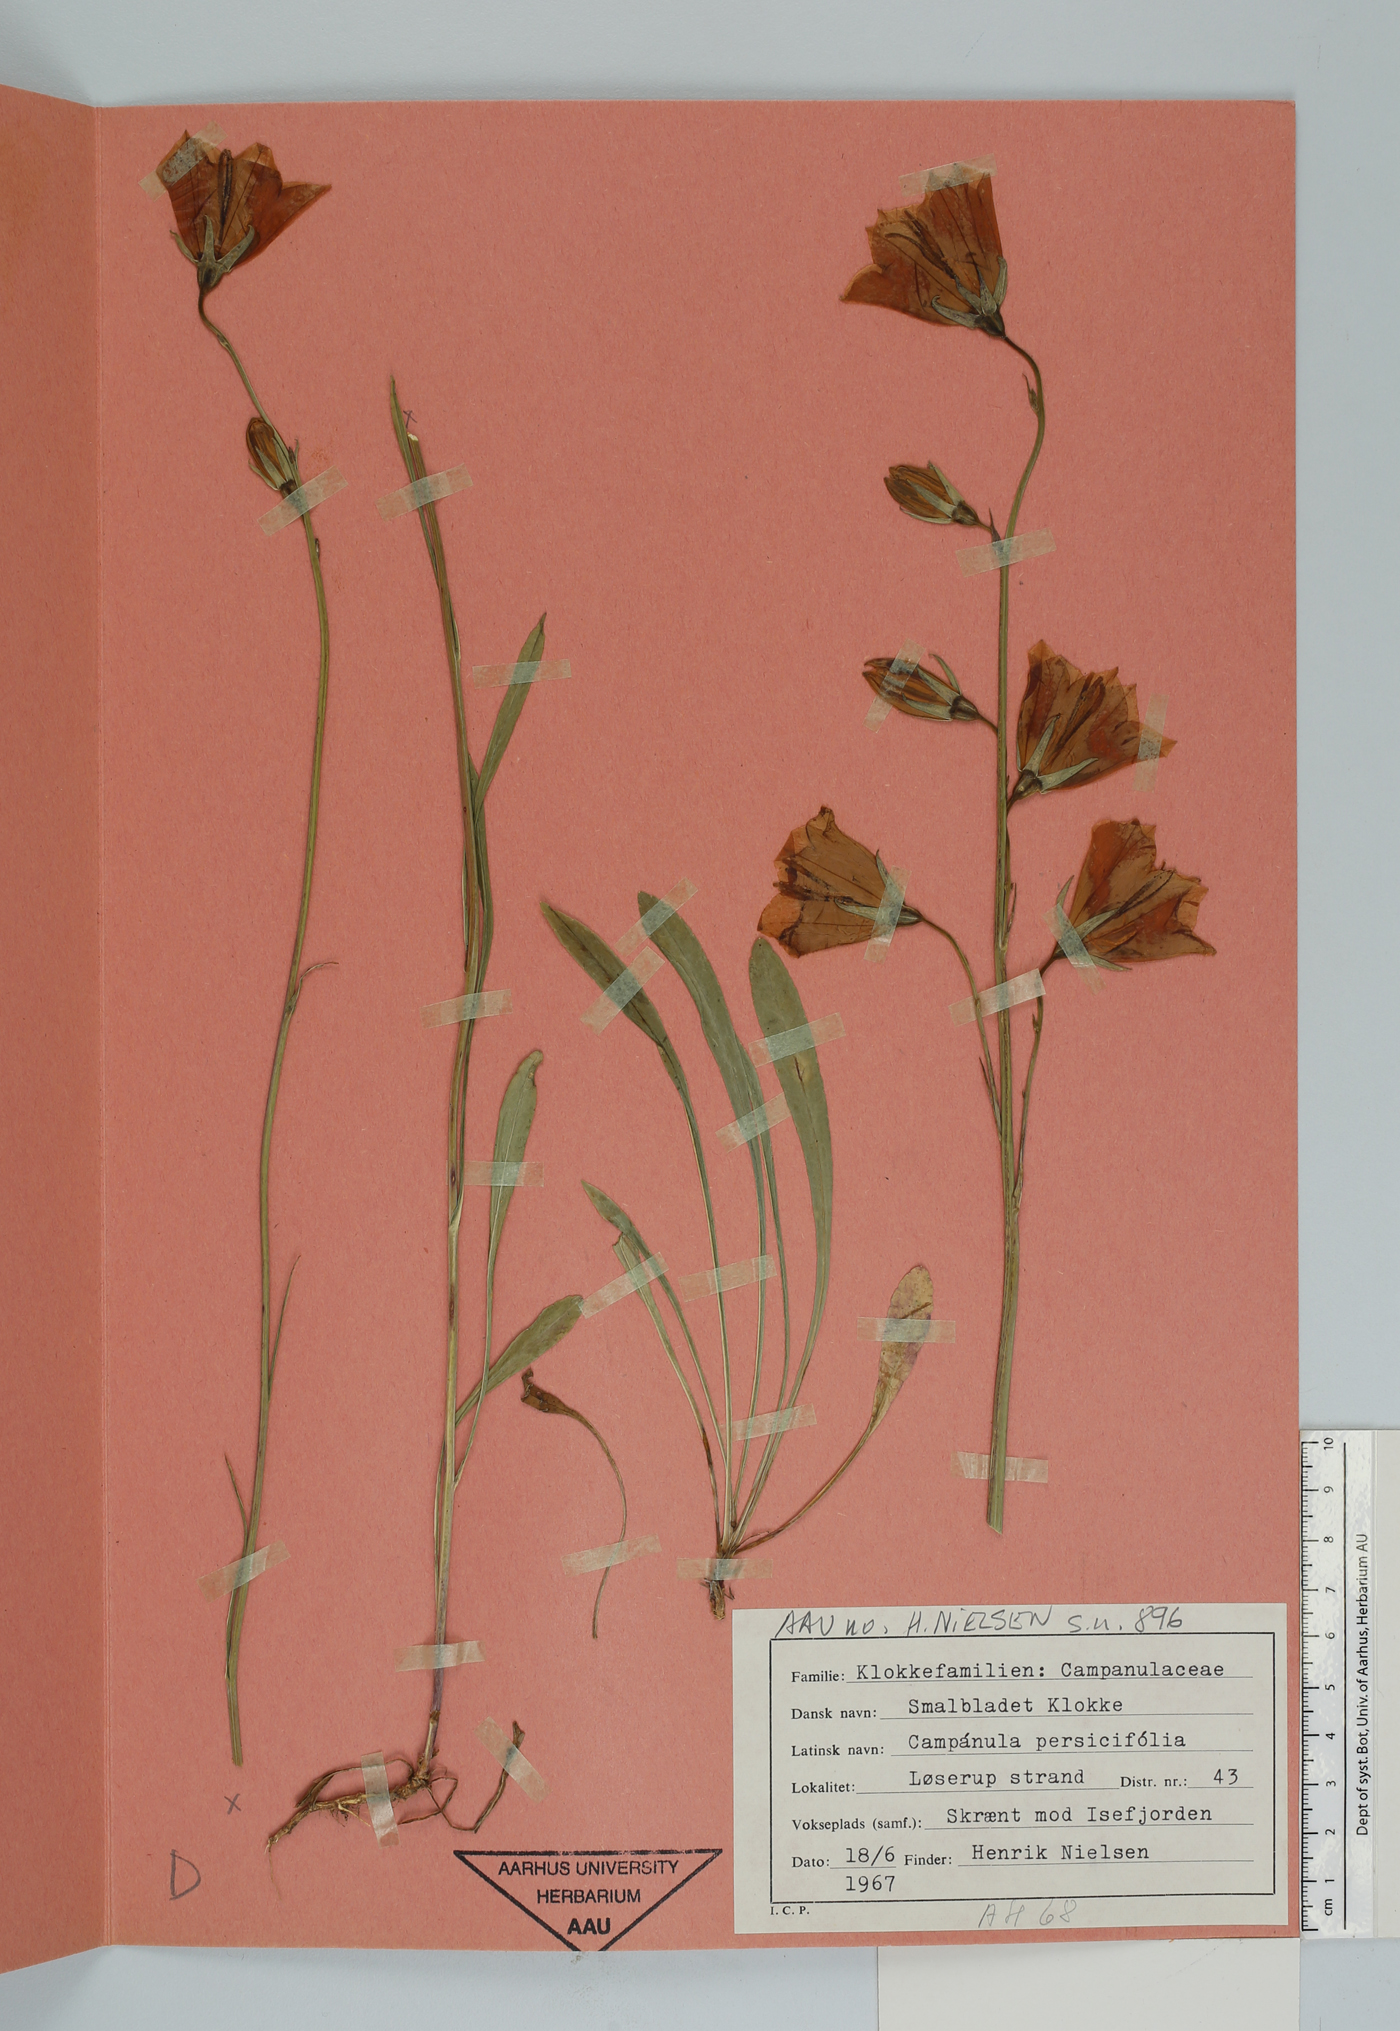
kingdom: Plantae
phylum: Tracheophyta
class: Magnoliopsida
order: Asterales
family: Campanulaceae
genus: Campanula
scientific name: Campanula persicifolia
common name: Peach-leaved bellflower
